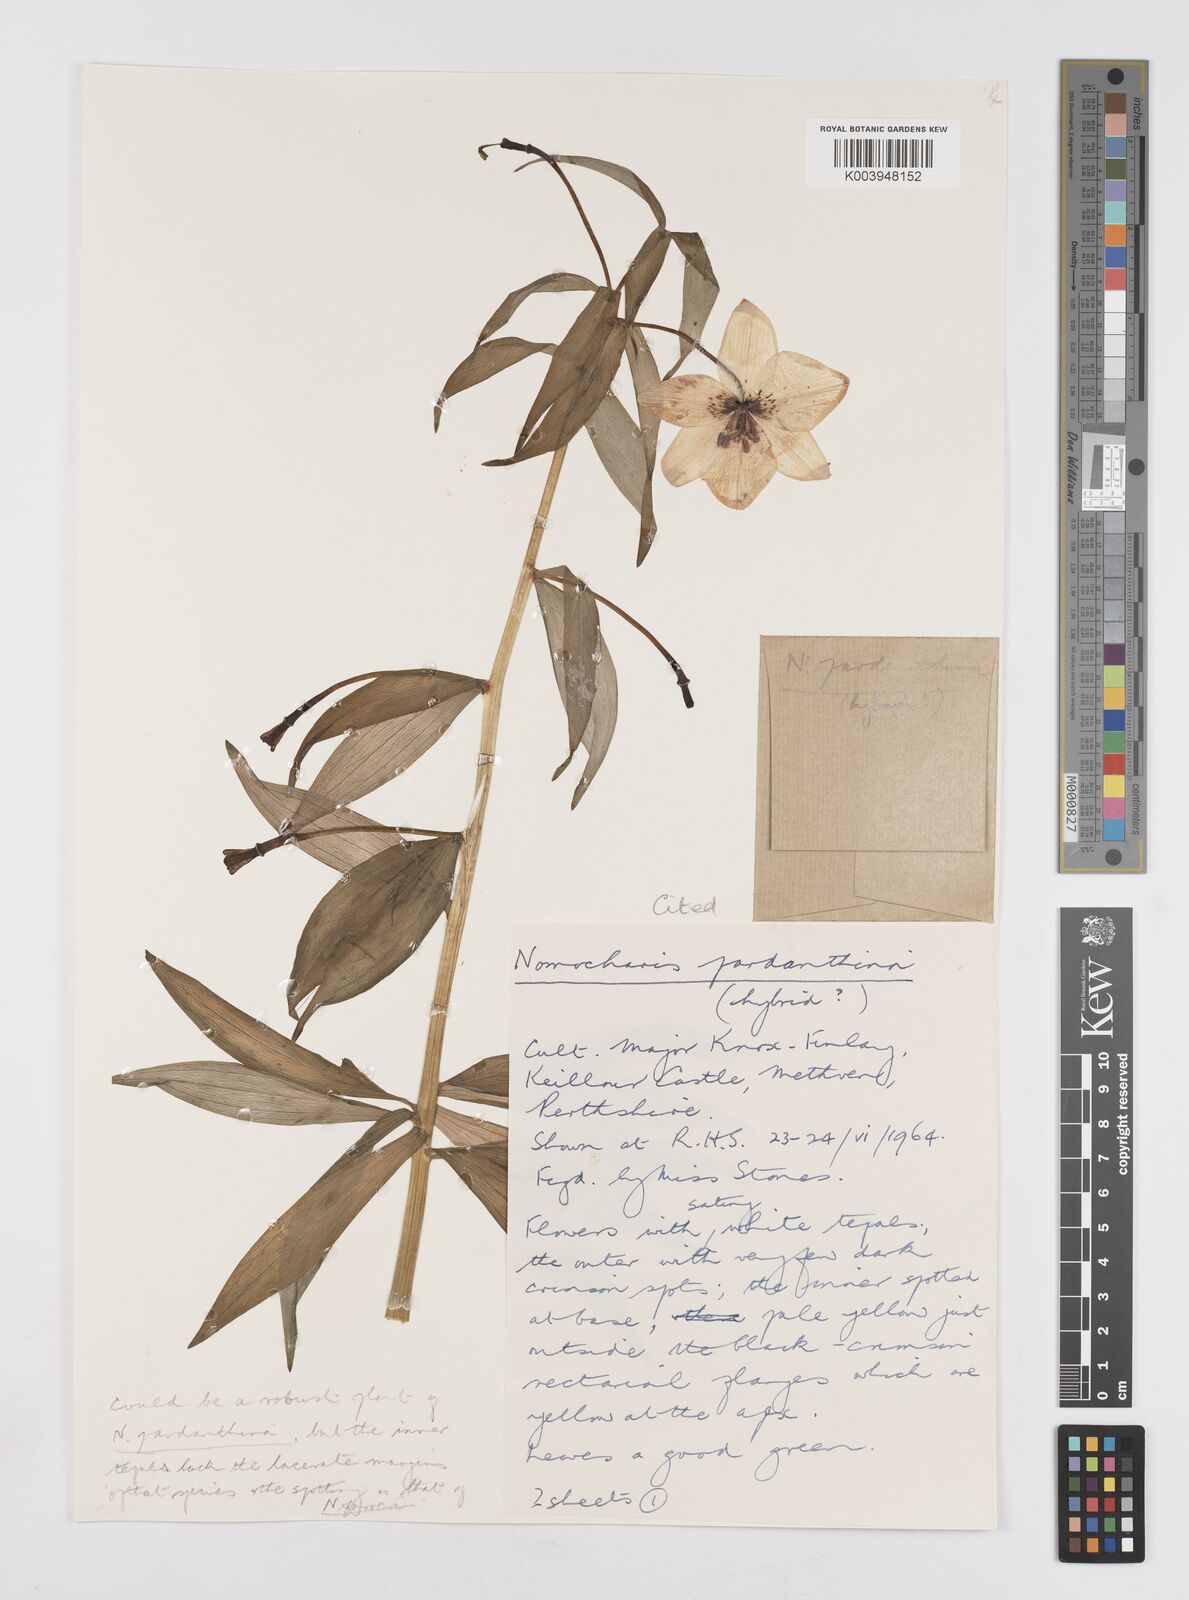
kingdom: Plantae
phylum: Tracheophyta
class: Liliopsida
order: Liliales
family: Liliaceae
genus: Lilium
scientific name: Lilium Nomocharis finlayorum
